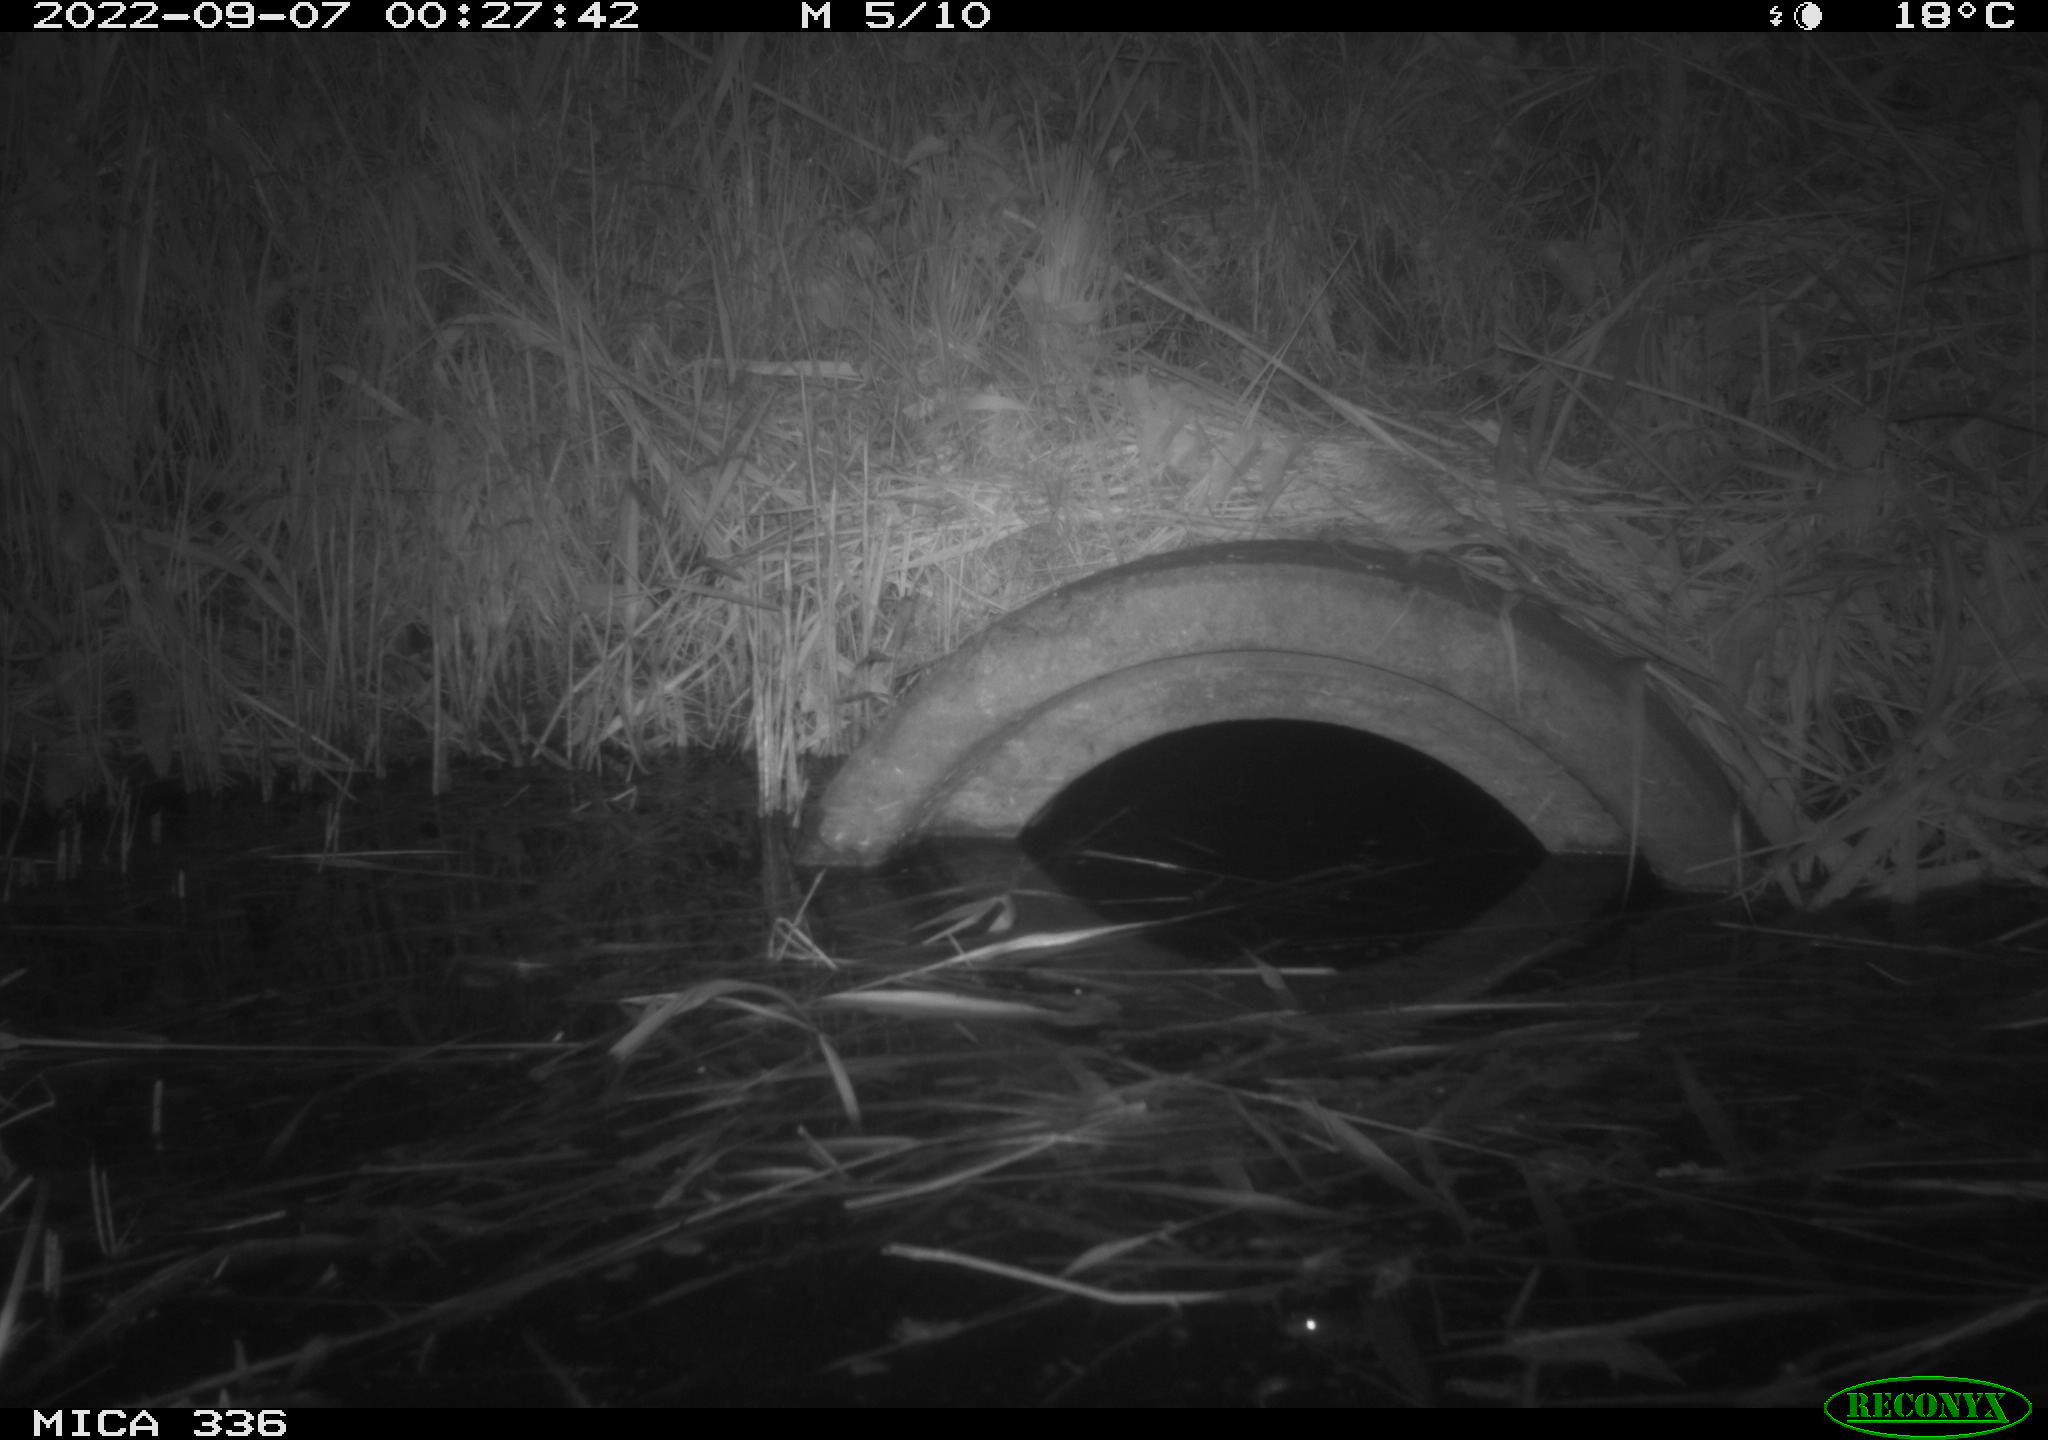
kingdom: Animalia
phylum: Chordata
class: Mammalia
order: Rodentia
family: Muridae
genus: Rattus
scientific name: Rattus norvegicus
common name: Brown rat
